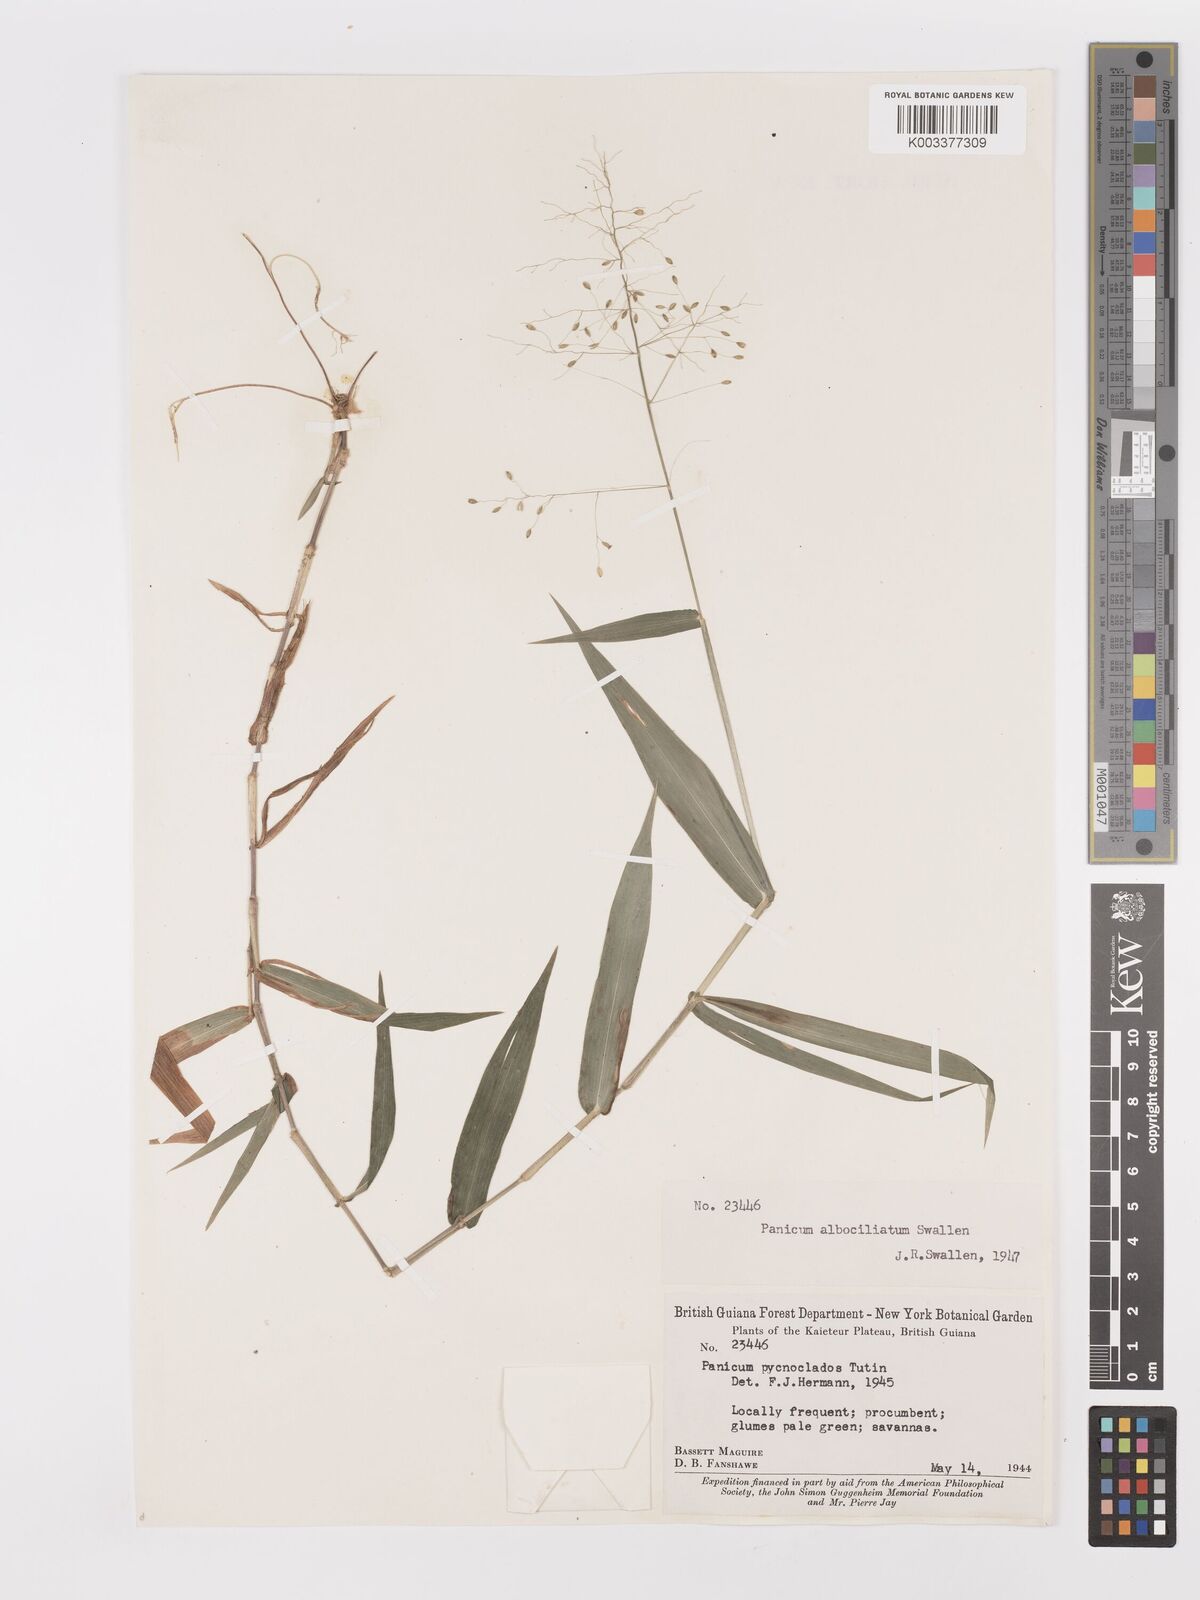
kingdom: Plantae
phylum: Tracheophyta
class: Liliopsida
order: Poales
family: Poaceae
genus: Dichanthelium
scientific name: Dichanthelium pycnoclados
